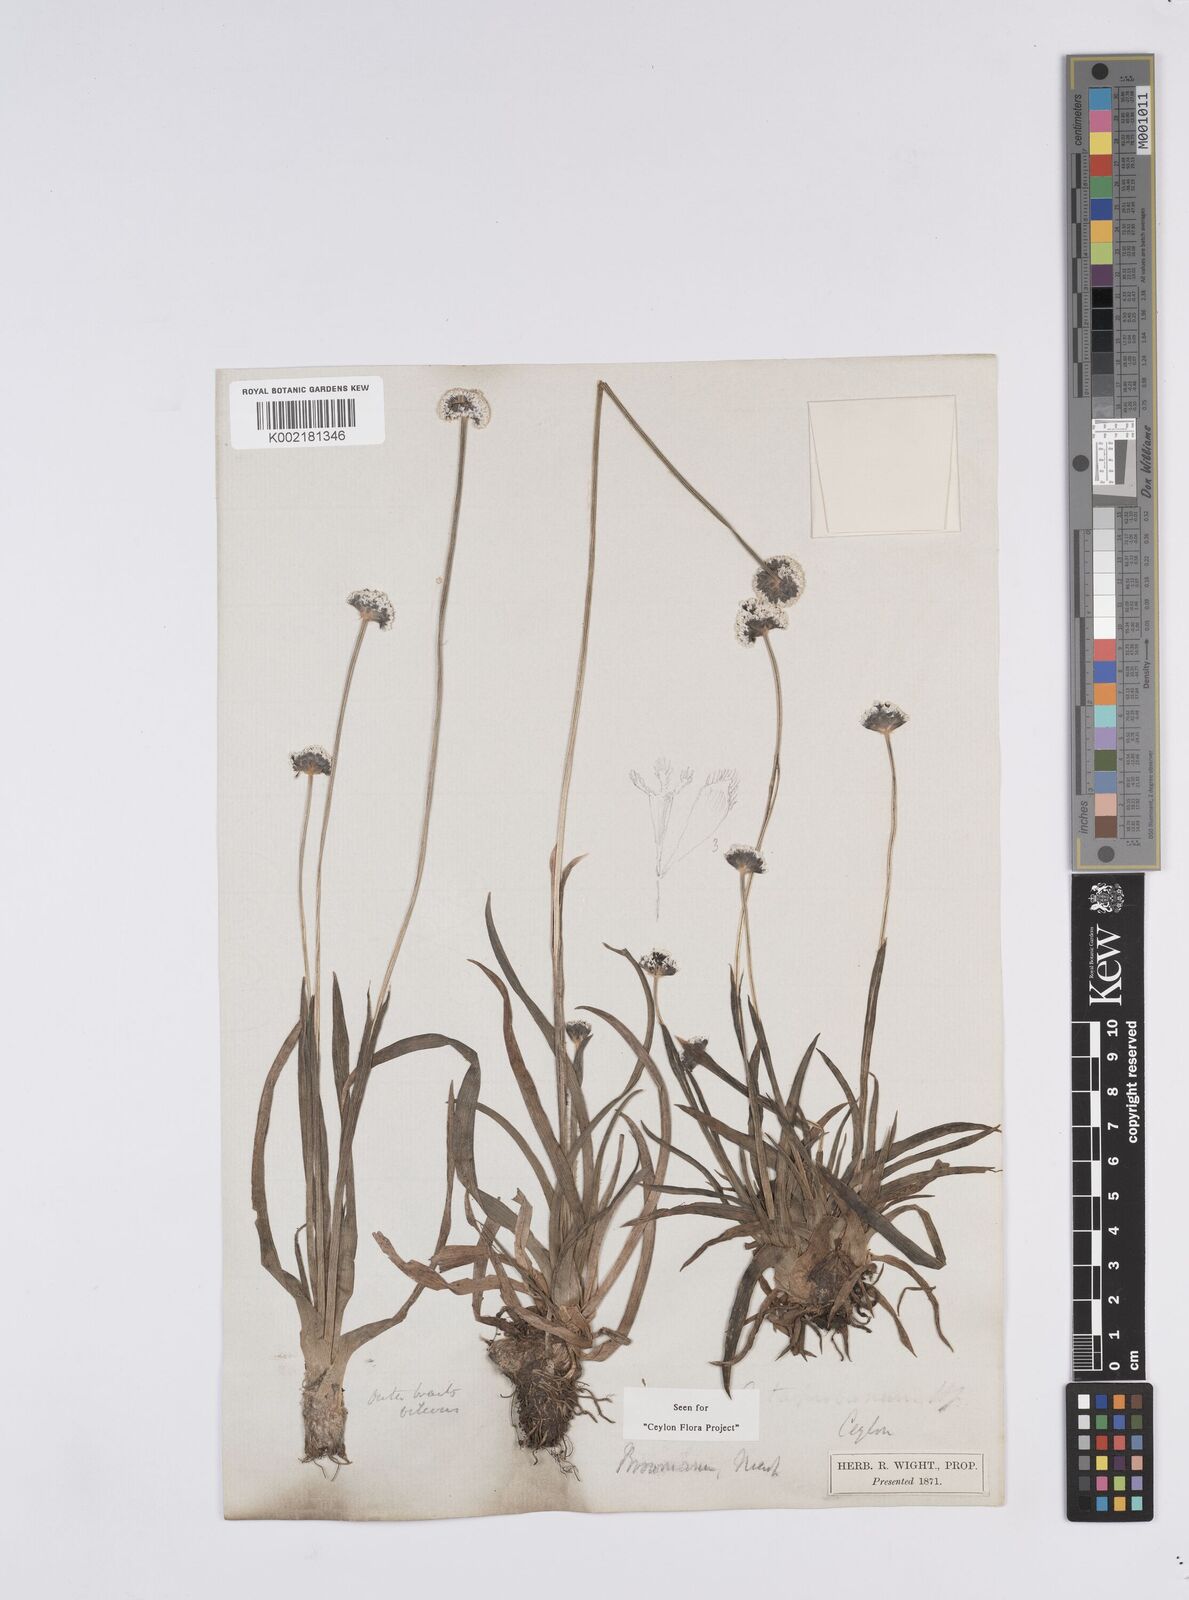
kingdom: Plantae
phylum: Tracheophyta
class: Liliopsida
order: Poales
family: Eriocaulaceae
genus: Eriocaulon
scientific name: Eriocaulon brownianum
